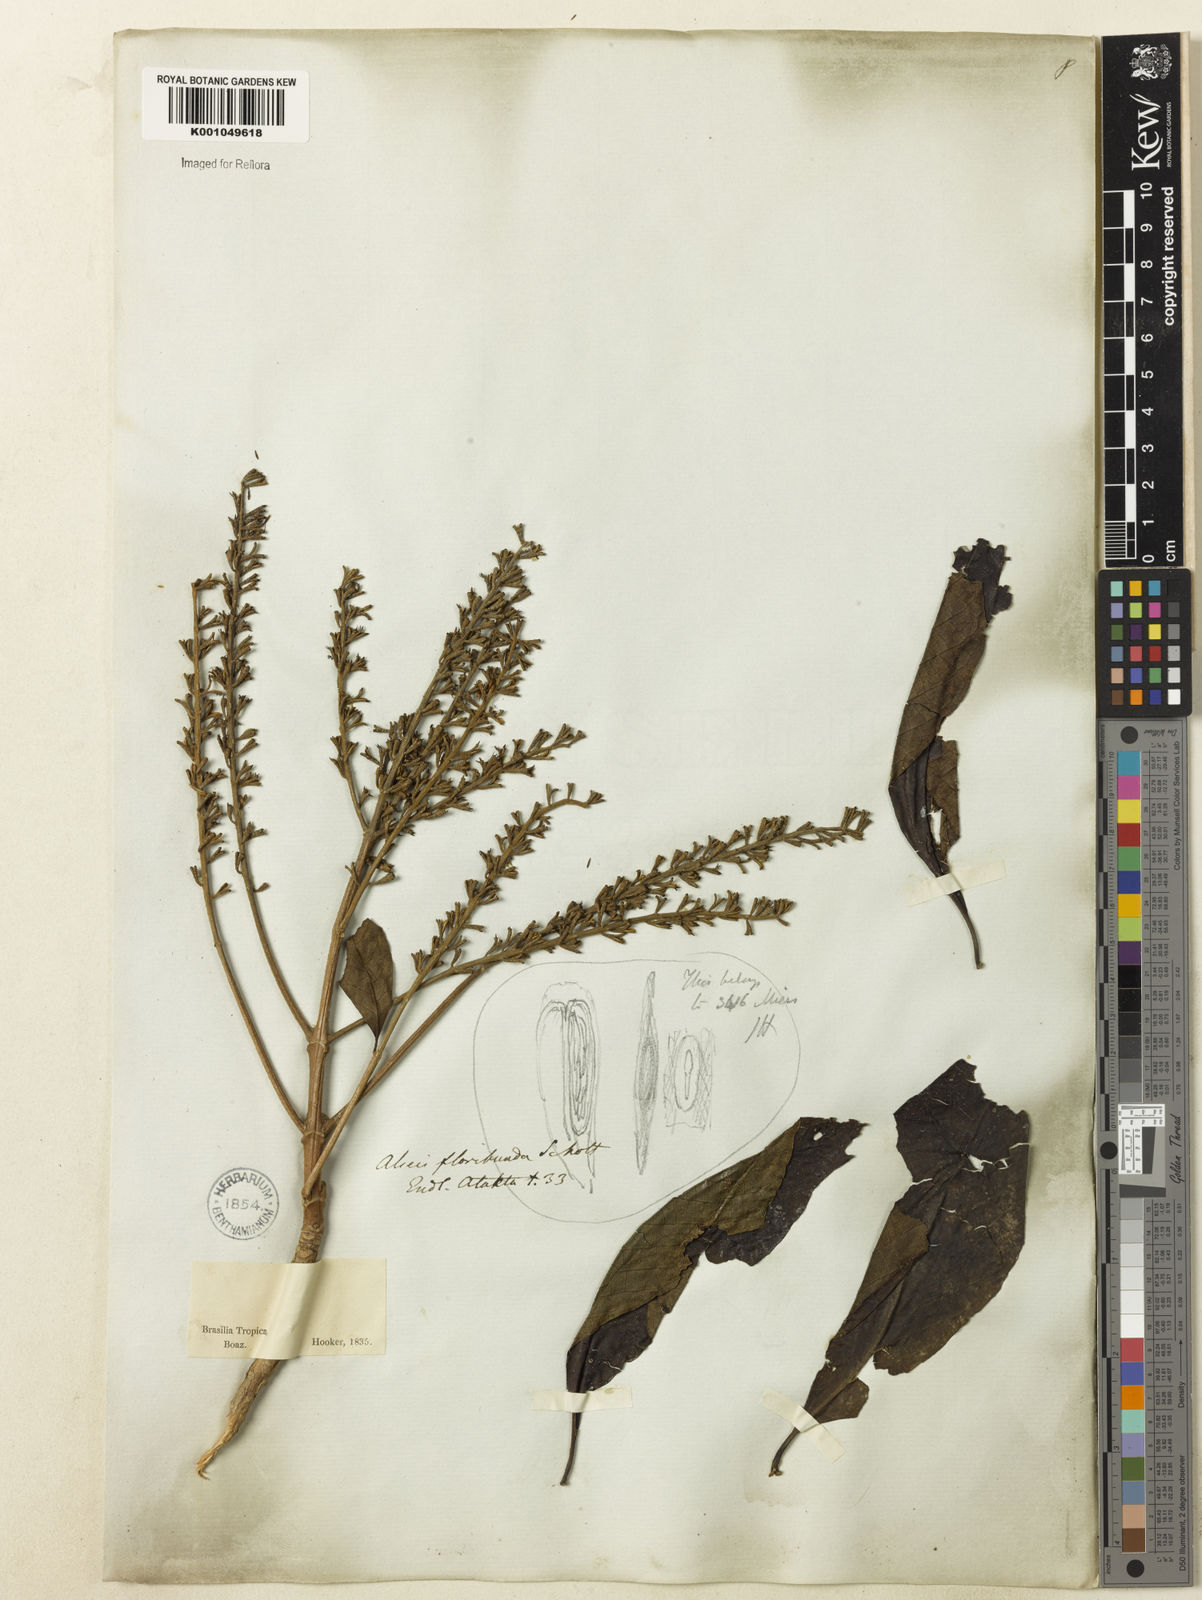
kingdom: Plantae
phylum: Tracheophyta
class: Magnoliopsida
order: Gentianales
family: Rubiaceae
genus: Alseis
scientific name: Alseis floribunda
